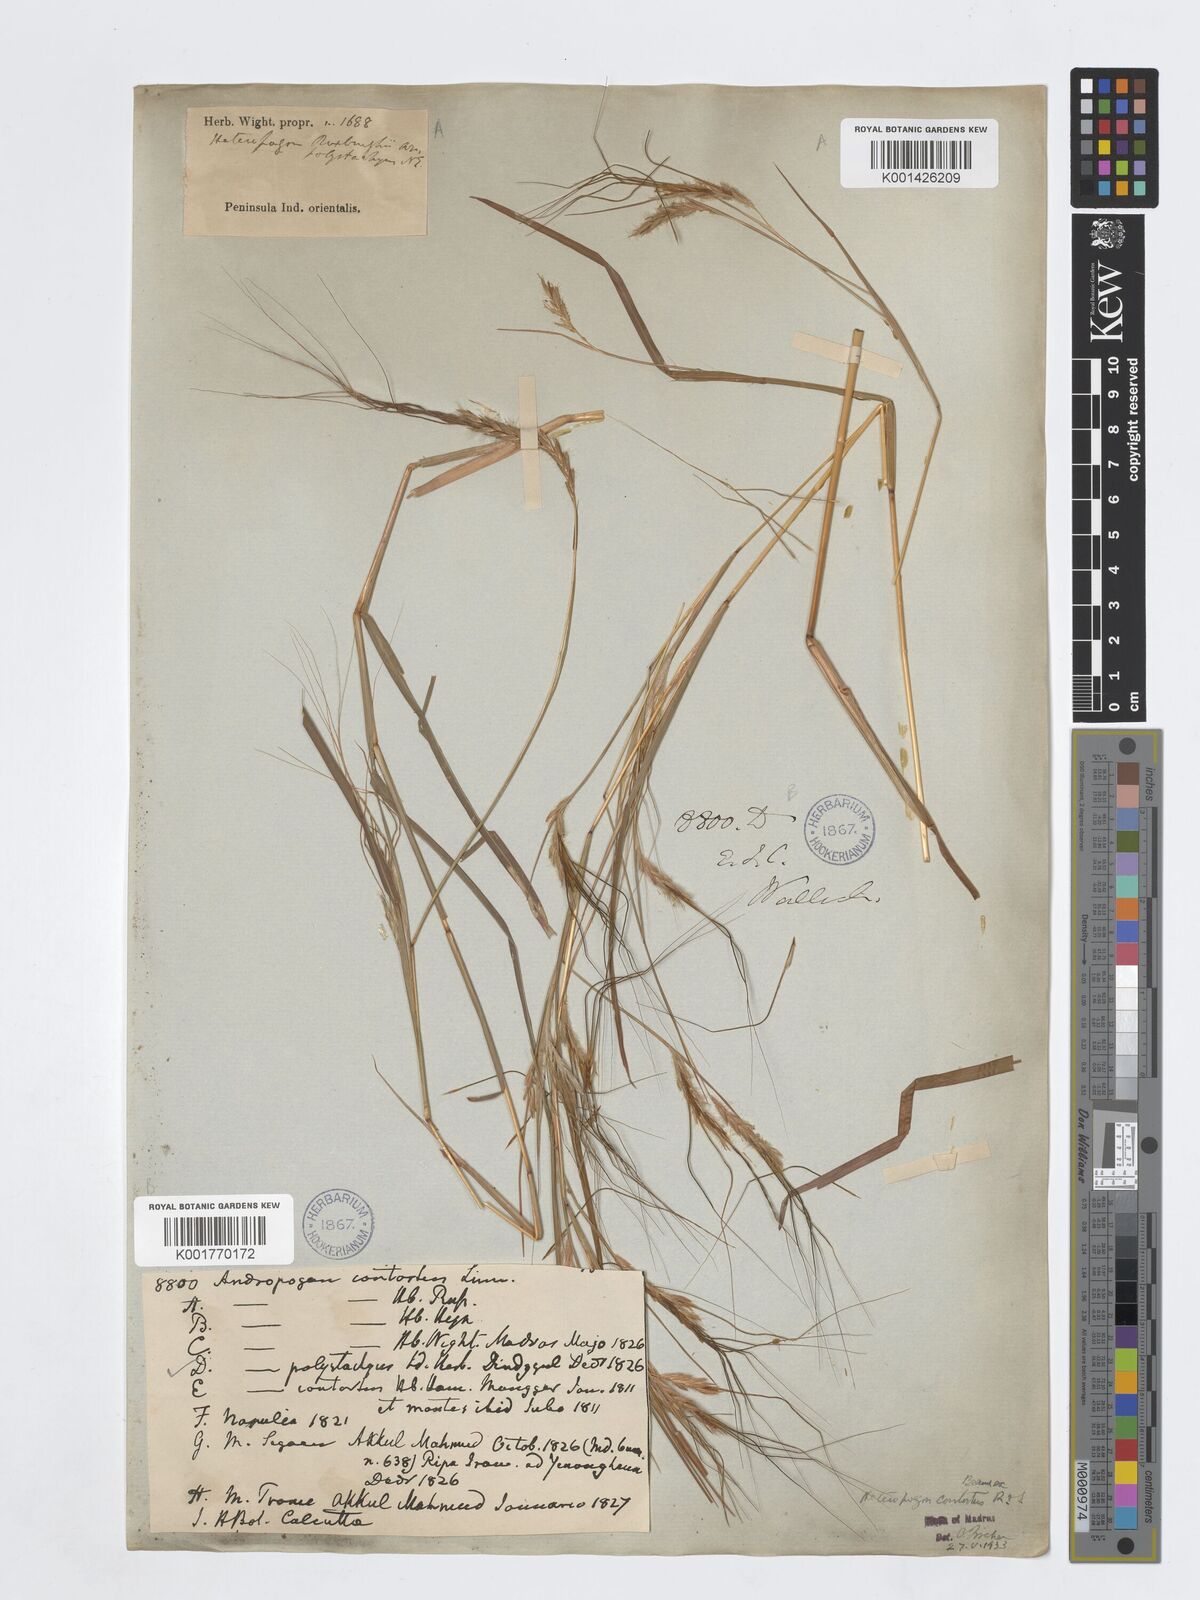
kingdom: Plantae
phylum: Tracheophyta
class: Liliopsida
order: Poales
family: Poaceae
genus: Heteropogon
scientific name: Heteropogon contortus
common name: Tanglehead
